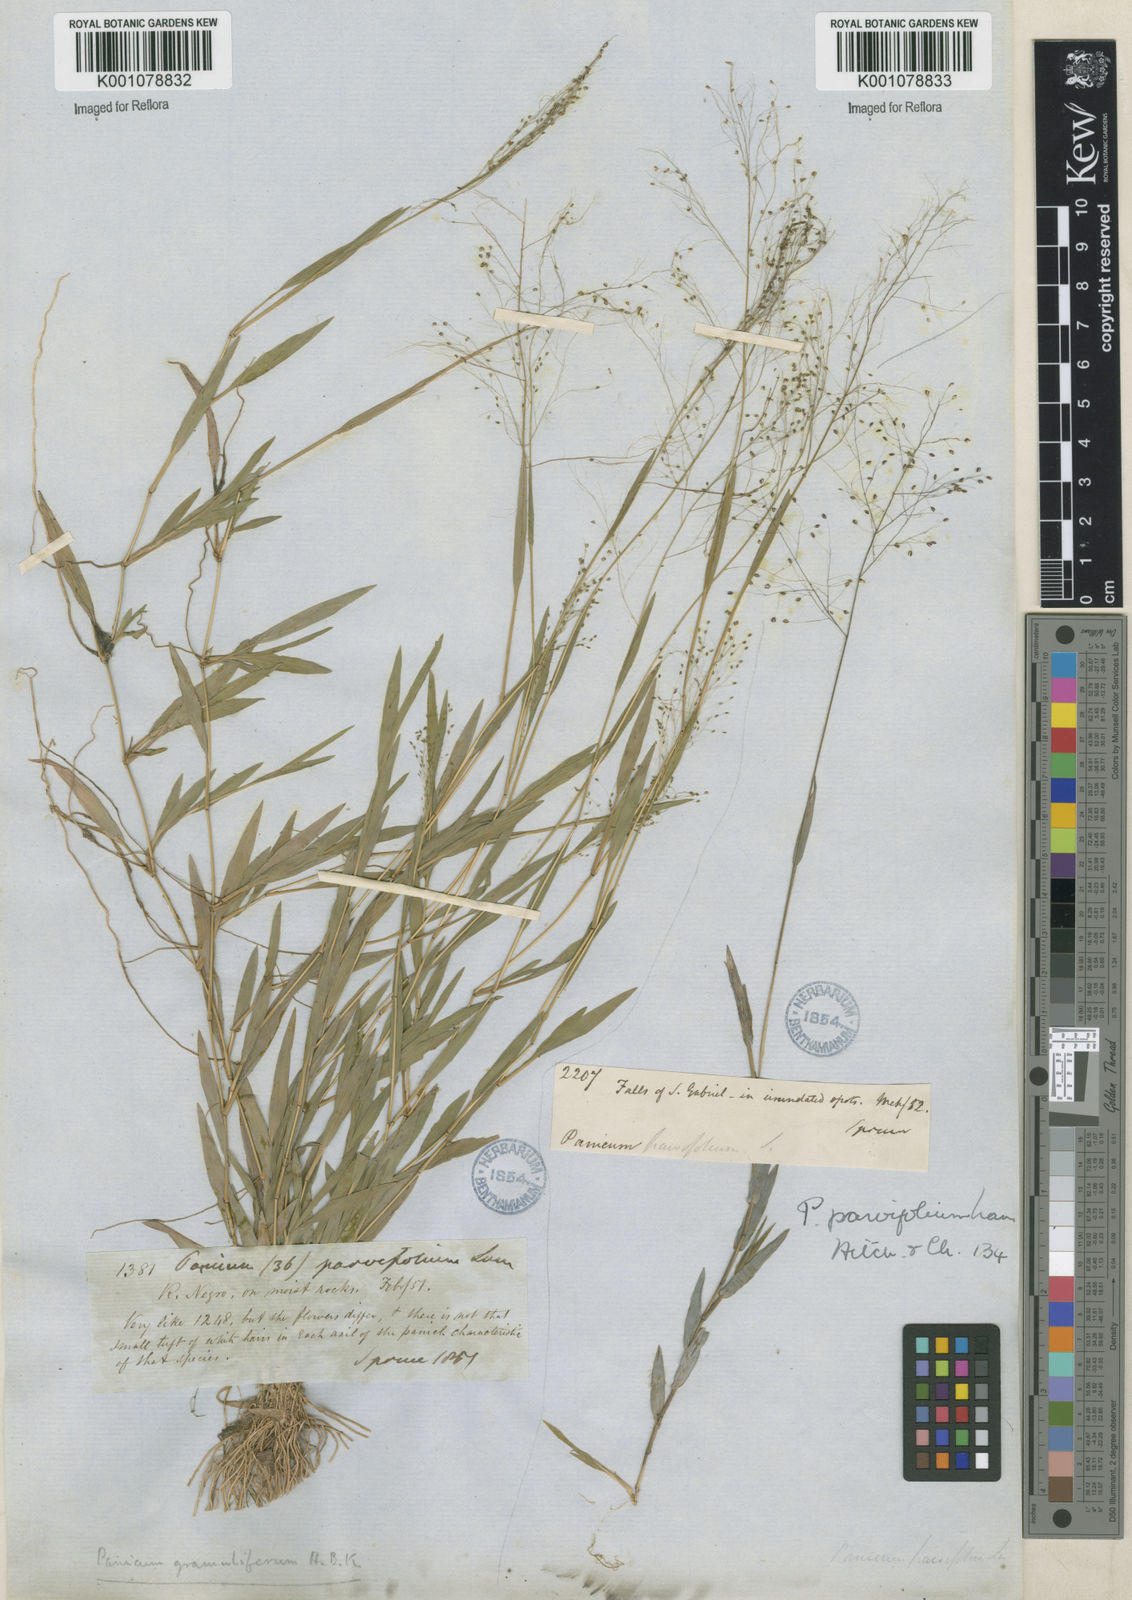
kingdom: Plantae
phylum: Tracheophyta
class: Liliopsida
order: Poales
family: Poaceae
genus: Trichanthecium
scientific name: Trichanthecium schwackeanum
